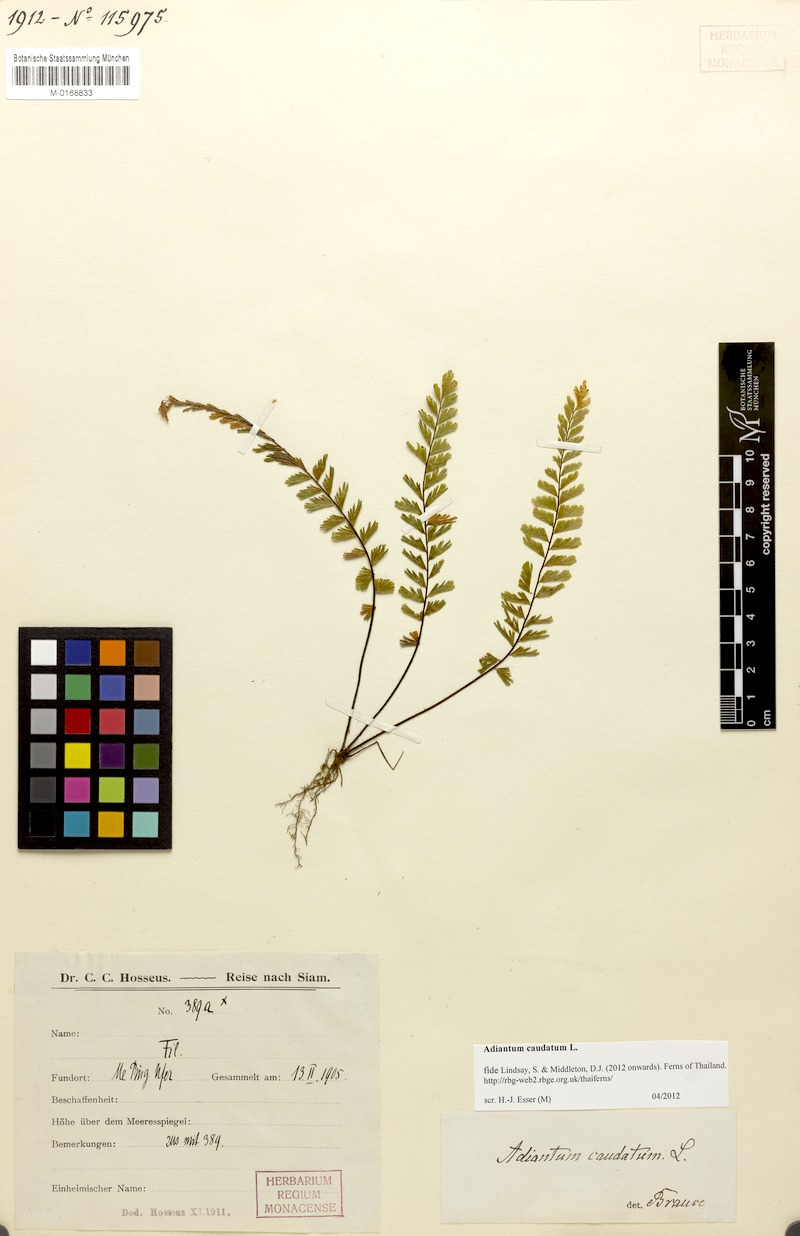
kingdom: Plantae
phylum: Tracheophyta
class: Polypodiopsida
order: Polypodiales
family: Pteridaceae
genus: Adiantum
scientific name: Adiantum caudatum
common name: Tailed maidenhair
